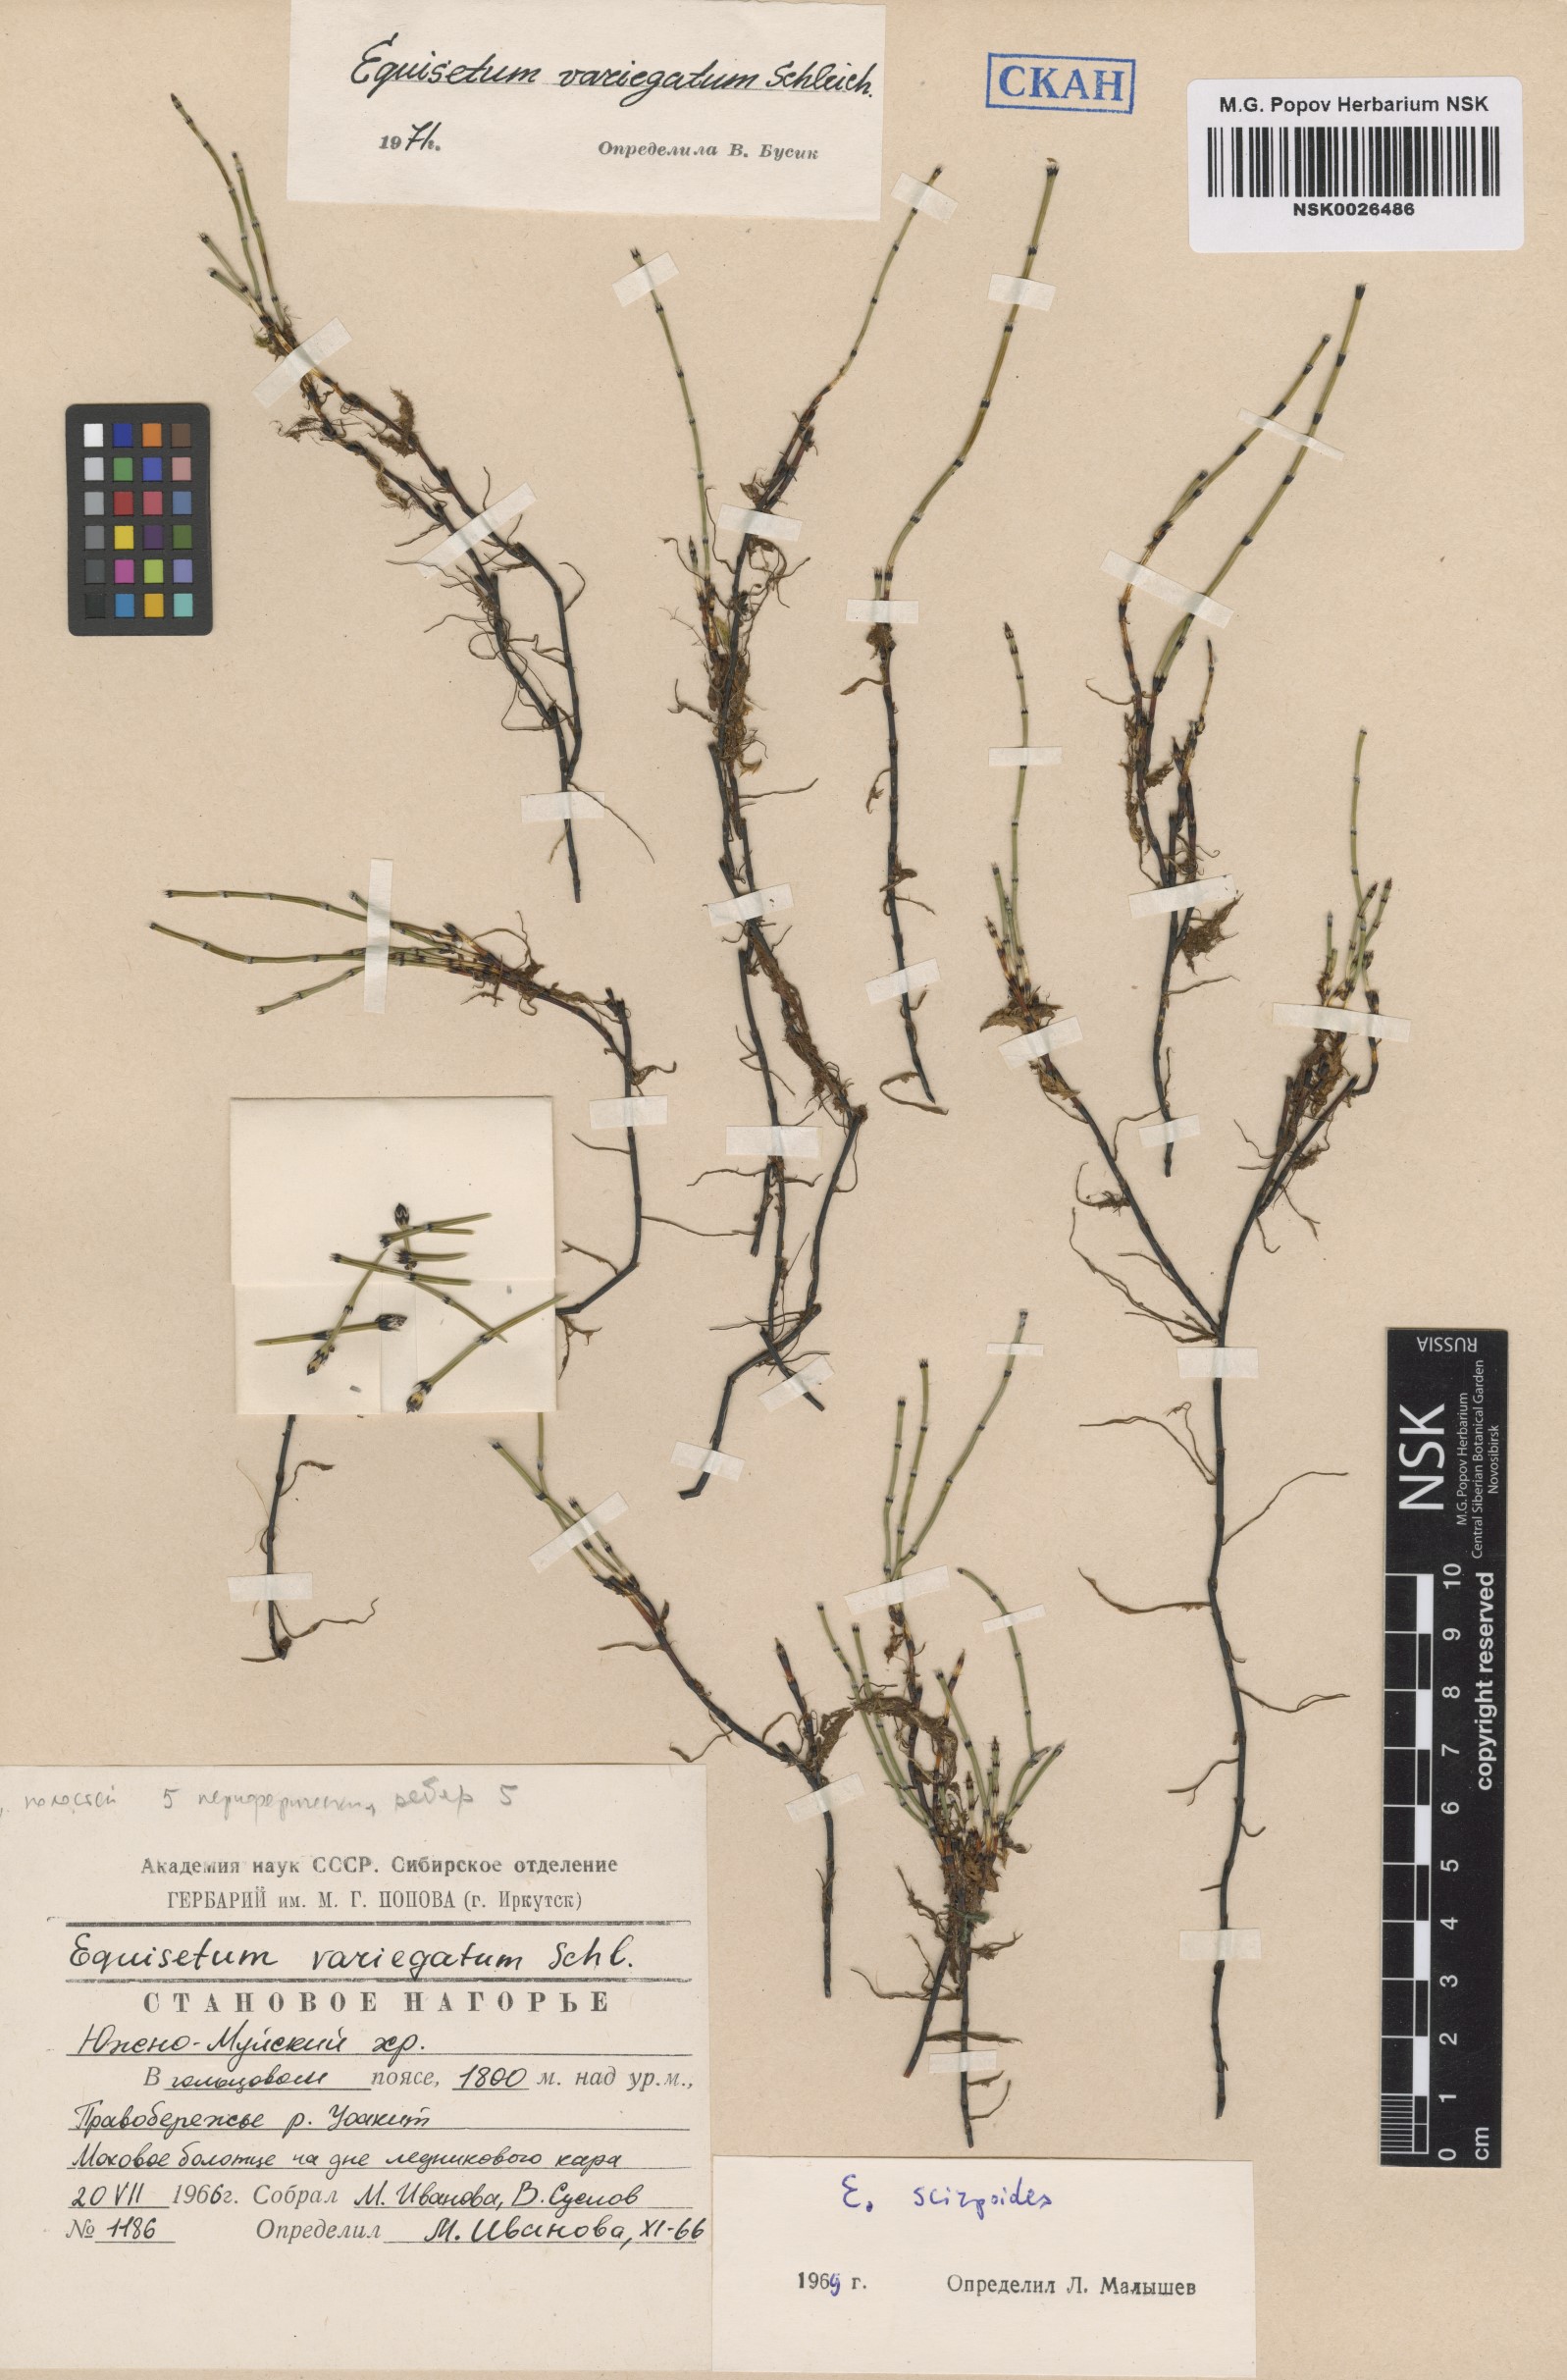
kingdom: Plantae
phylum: Tracheophyta
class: Polypodiopsida
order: Equisetales
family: Equisetaceae
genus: Equisetum
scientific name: Equisetum variegatum
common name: Variegated horsetail
